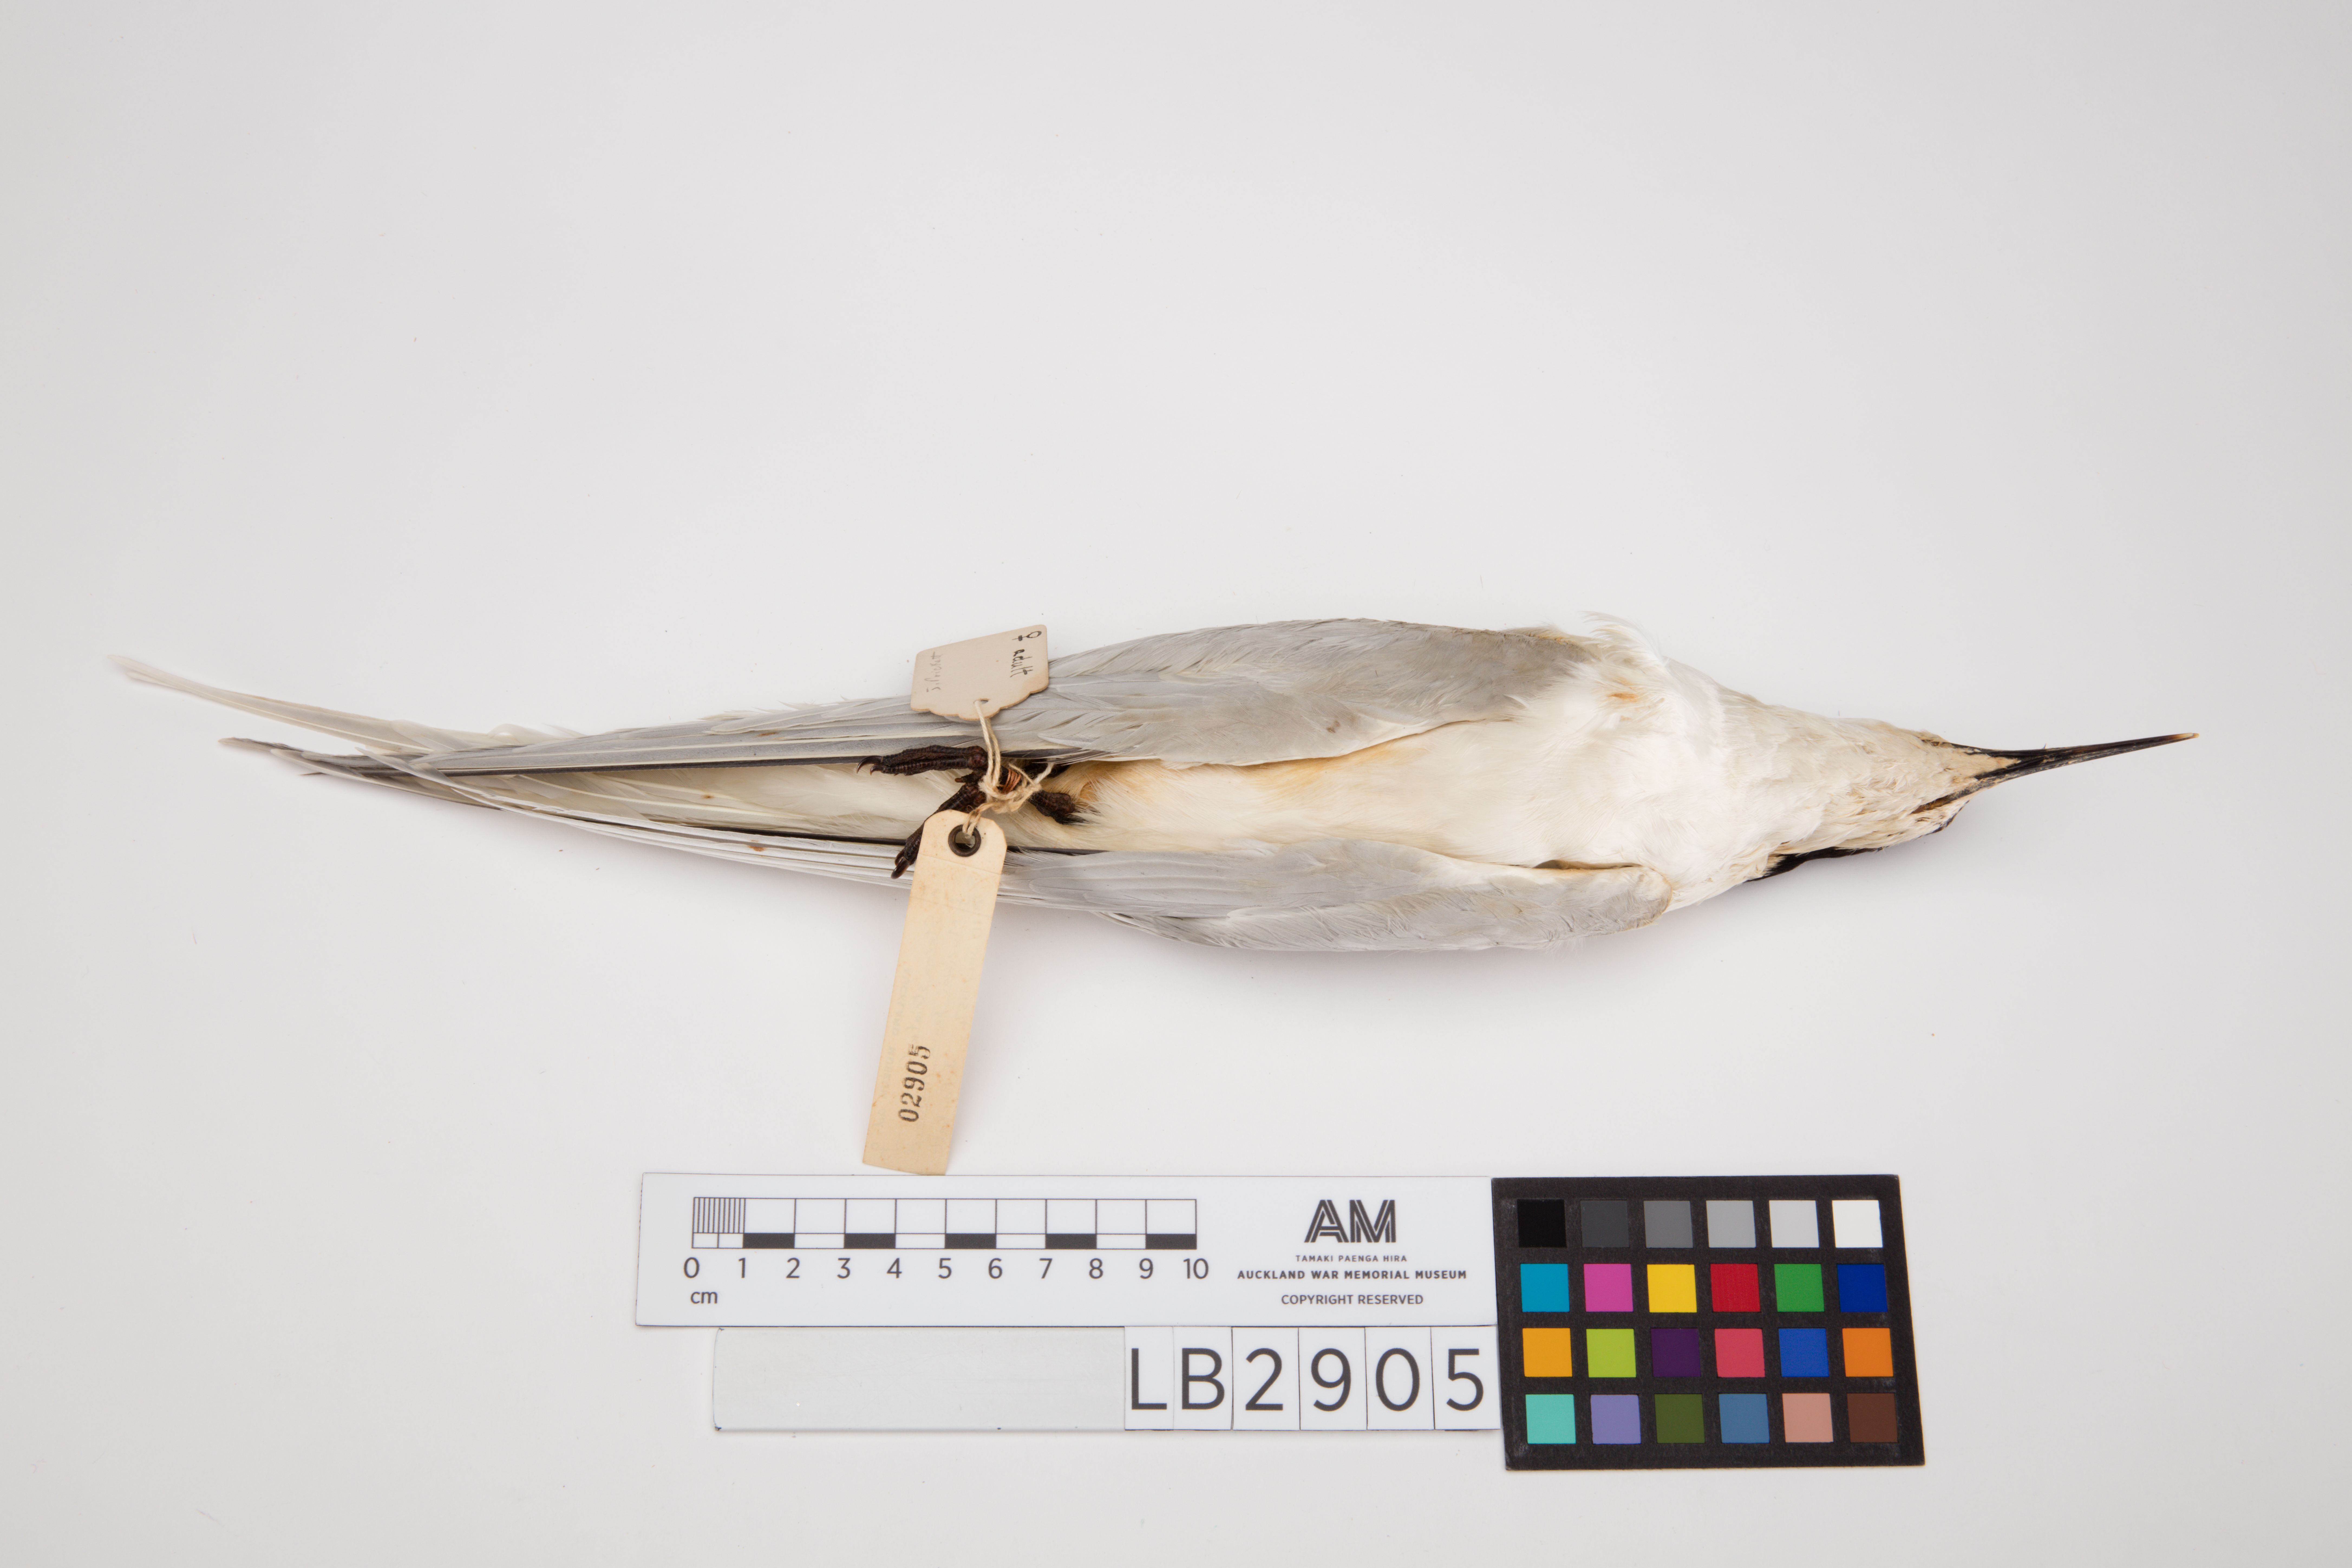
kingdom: Animalia
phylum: Chordata
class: Aves
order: Charadriiformes
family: Laridae
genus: Sterna
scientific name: Sterna striata
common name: White-fronted tern
